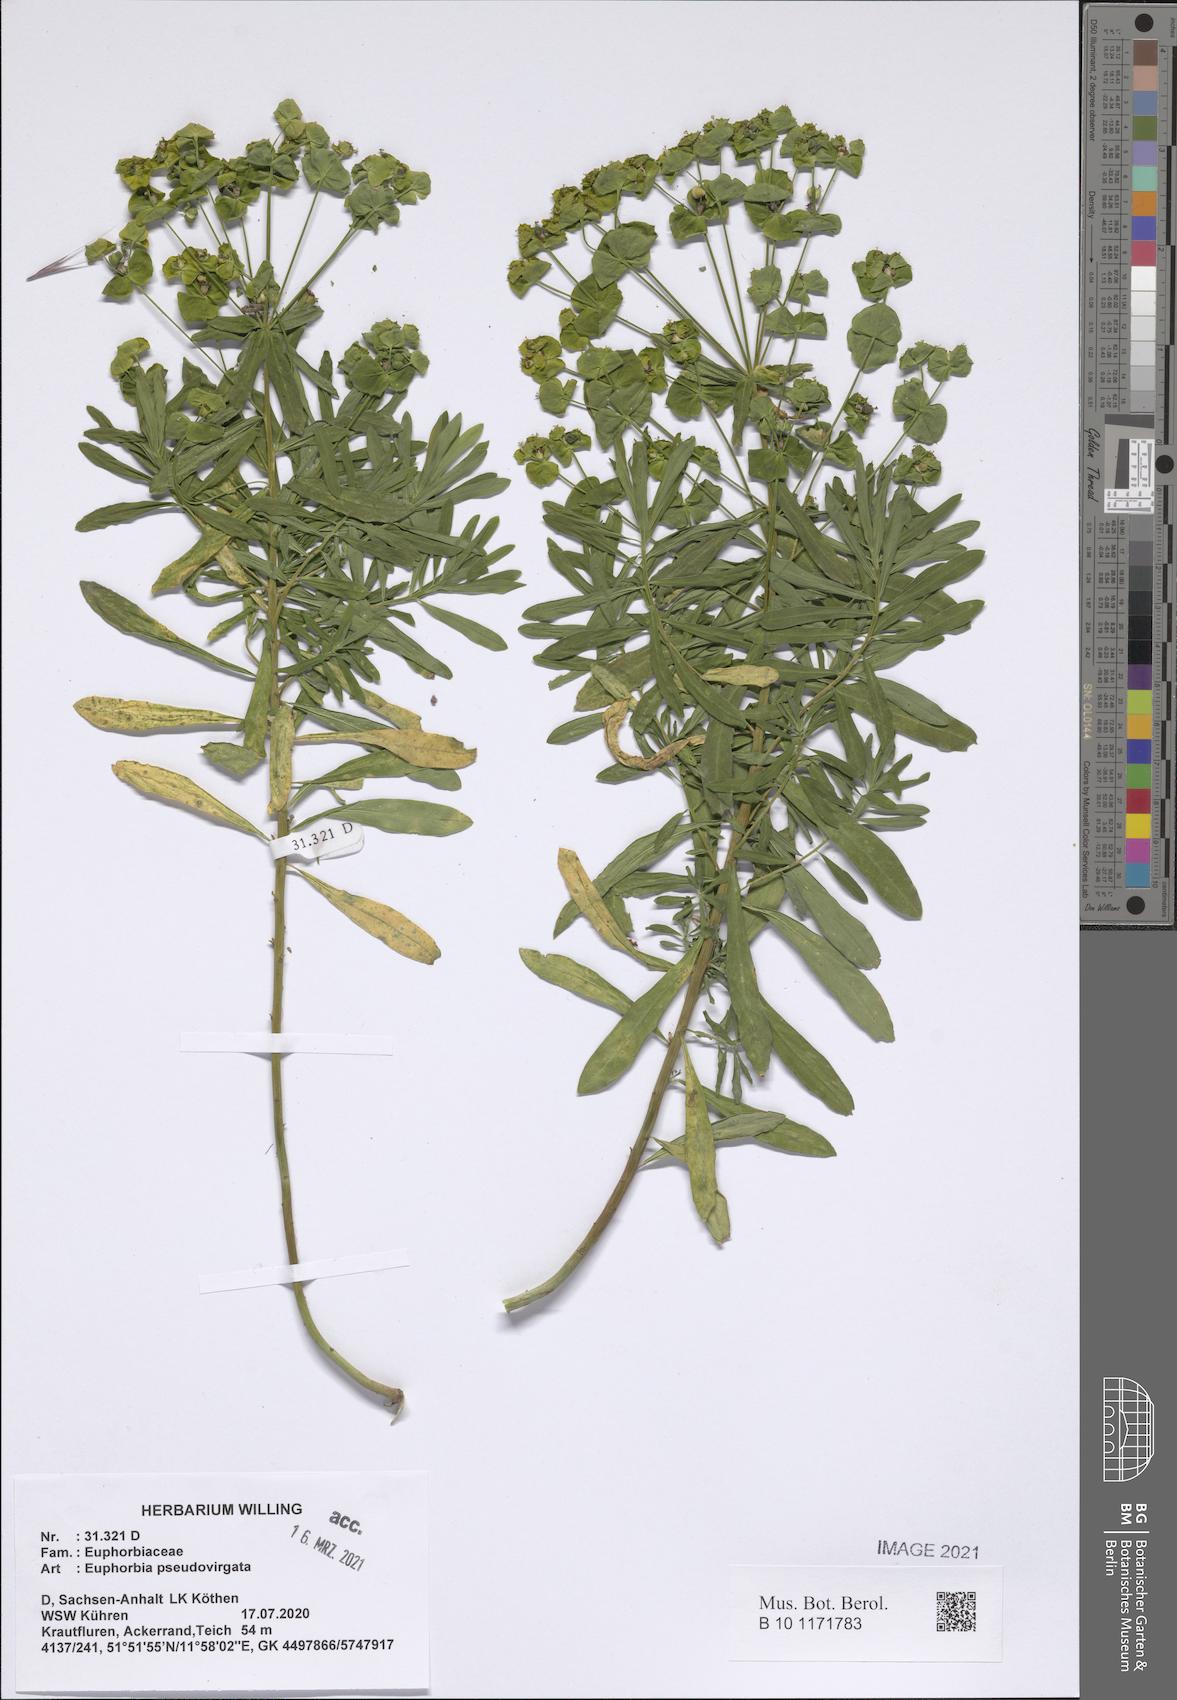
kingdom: Plantae
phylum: Tracheophyta
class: Magnoliopsida
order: Malpighiales
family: Euphorbiaceae
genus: Euphorbia
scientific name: Euphorbia virgata
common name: Leafy spurge
